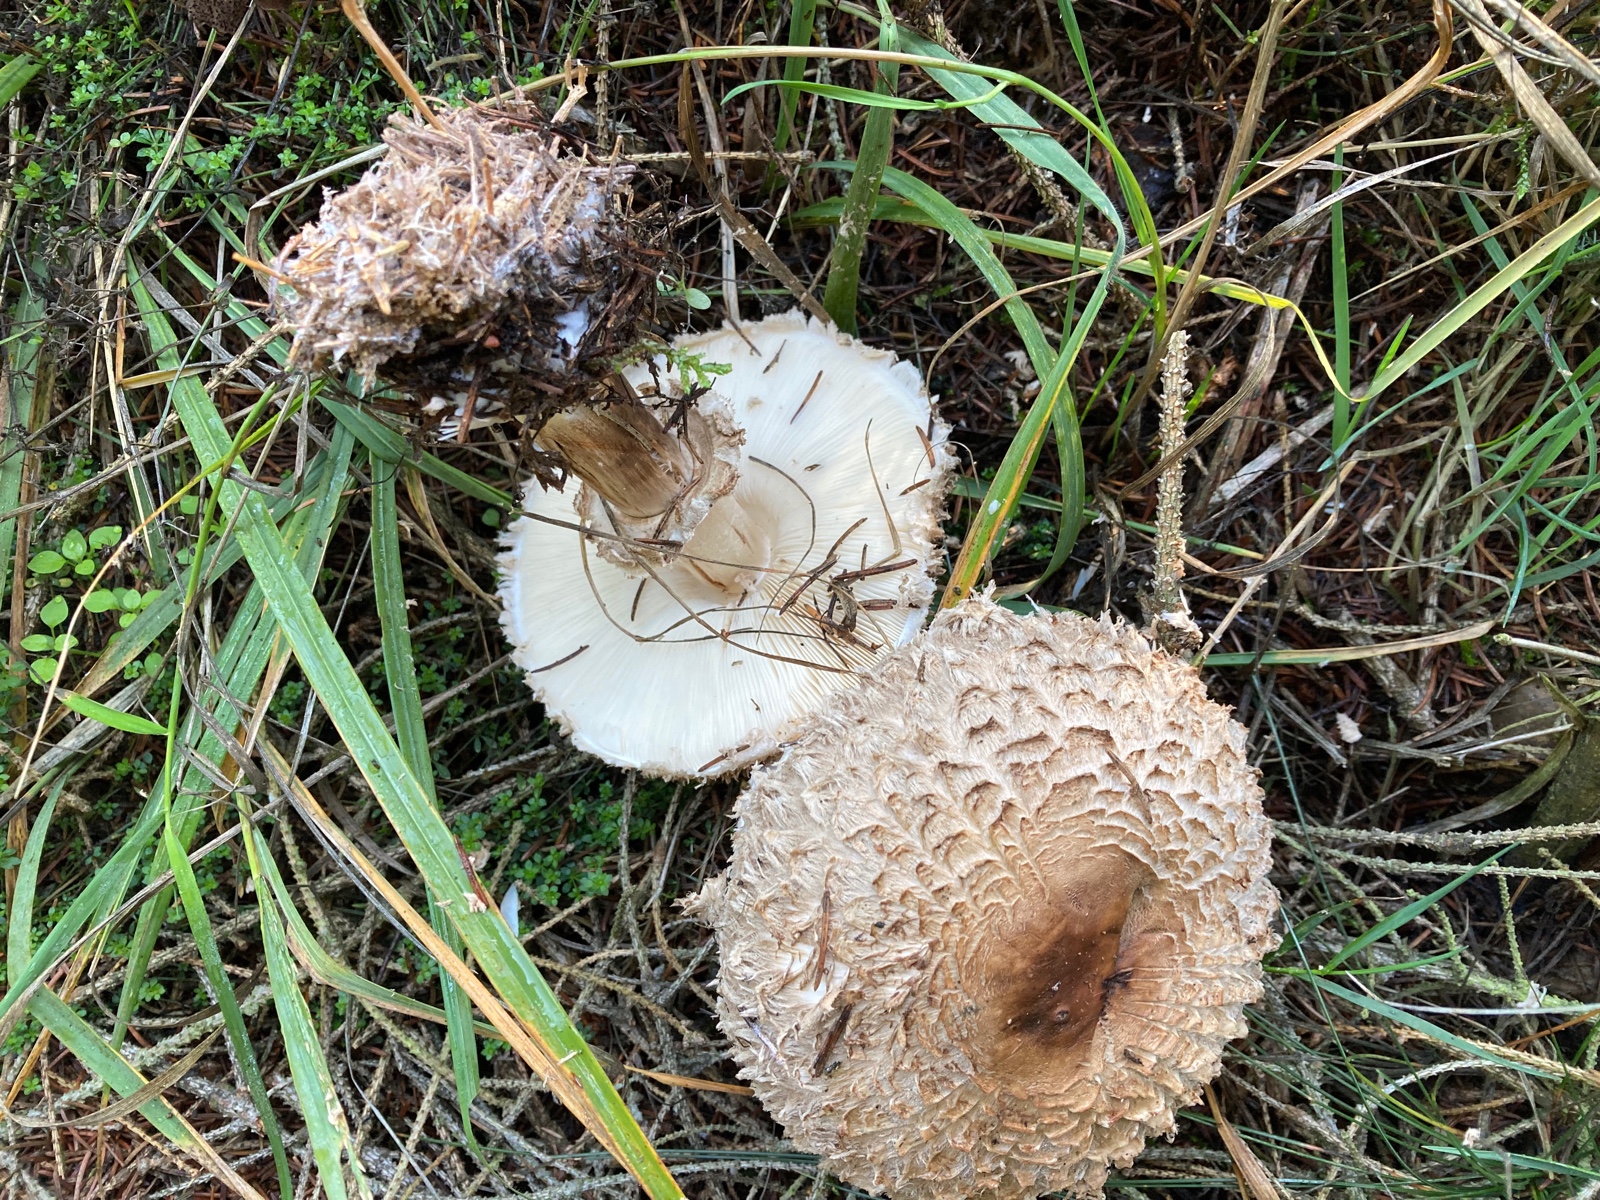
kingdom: Fungi
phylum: Basidiomycota
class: Agaricomycetes
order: Agaricales
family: Agaricaceae
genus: Chlorophyllum
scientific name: Chlorophyllum olivieri
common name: almindelig rabarberhat
